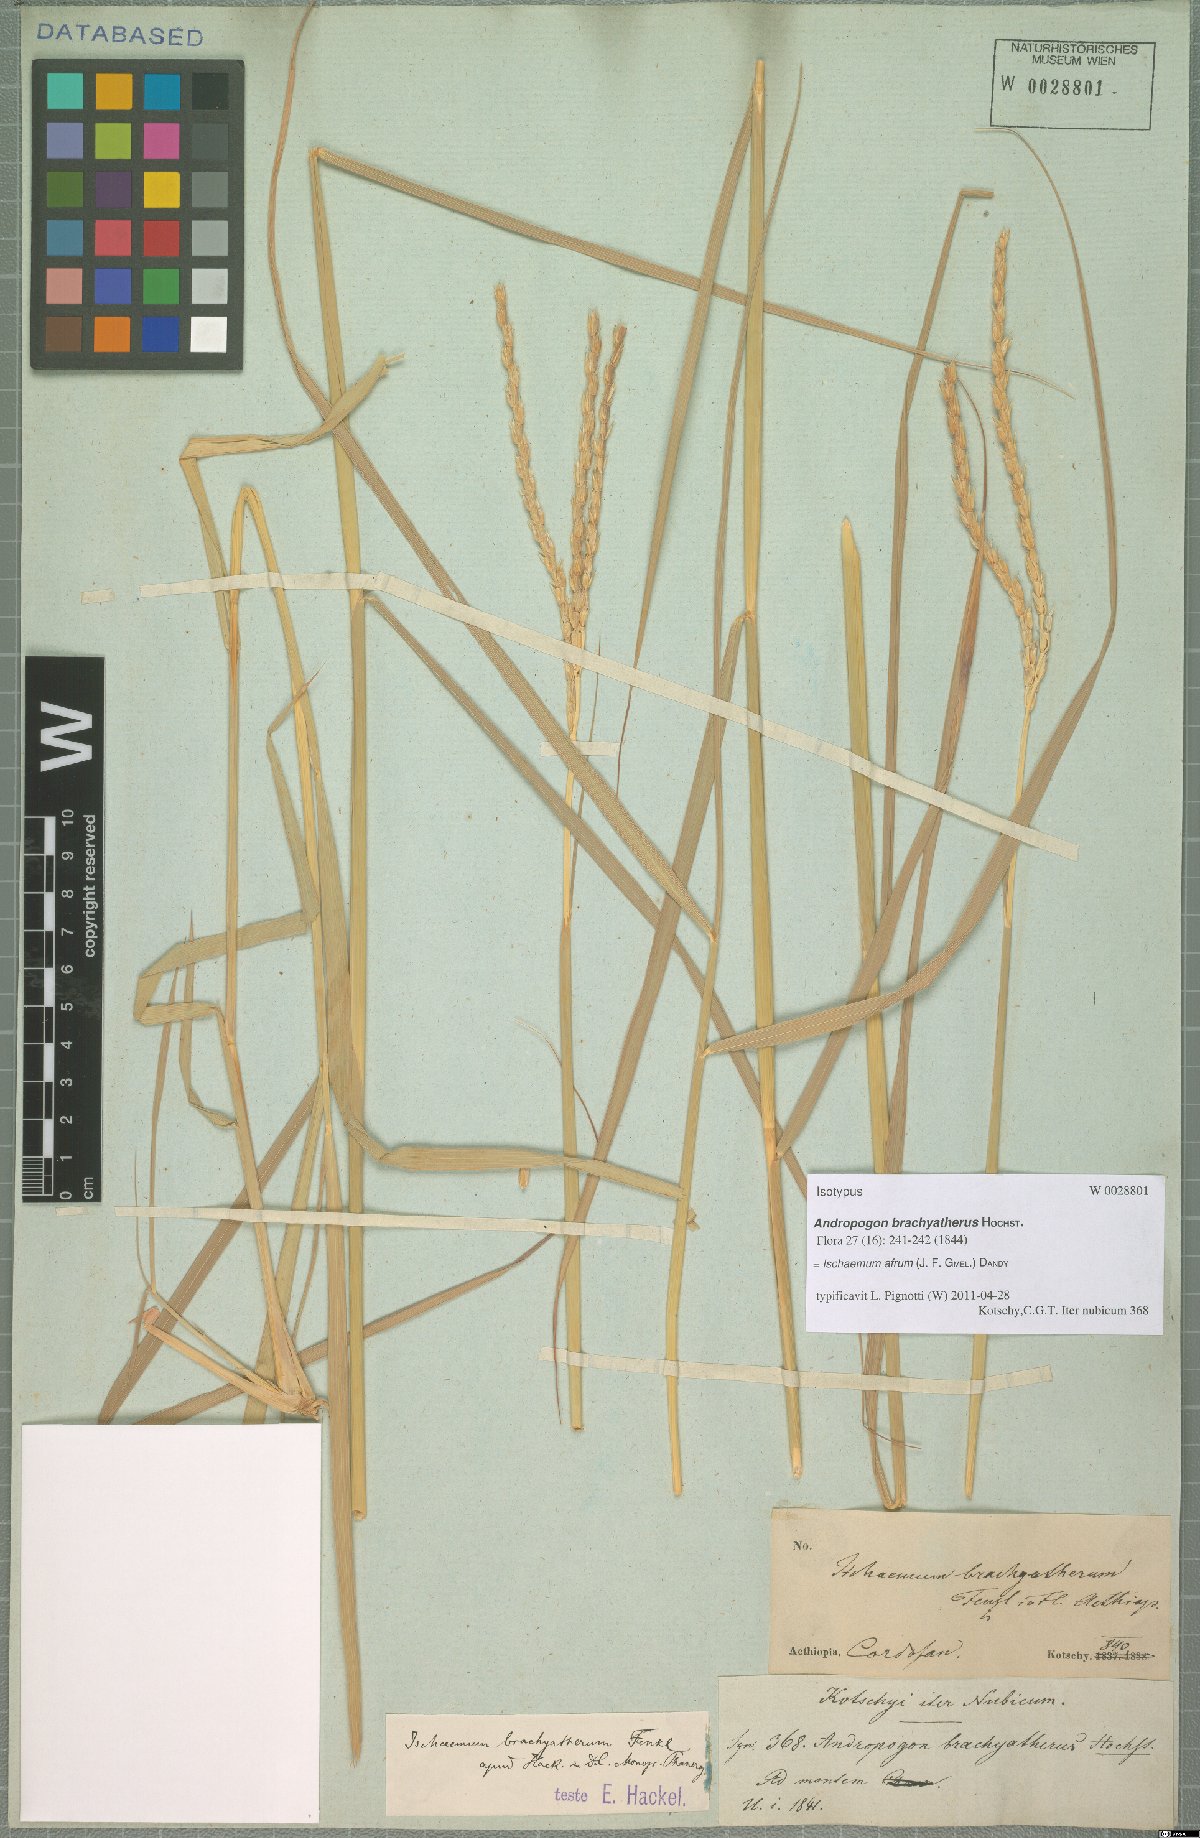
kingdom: Plantae
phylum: Tracheophyta
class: Liliopsida
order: Poales
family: Poaceae
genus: Ischaemum
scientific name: Ischaemum afrum
